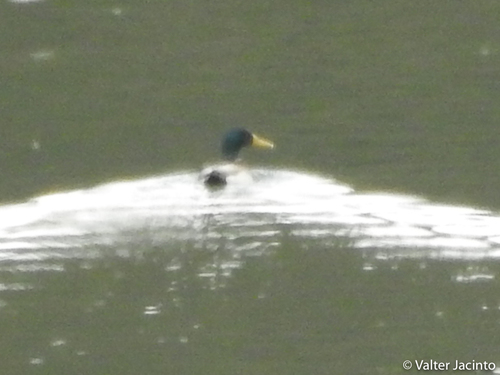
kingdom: Animalia
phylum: Chordata
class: Aves
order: Anseriformes
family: Anatidae
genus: Anas
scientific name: Anas platyrhynchos
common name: Mallard
